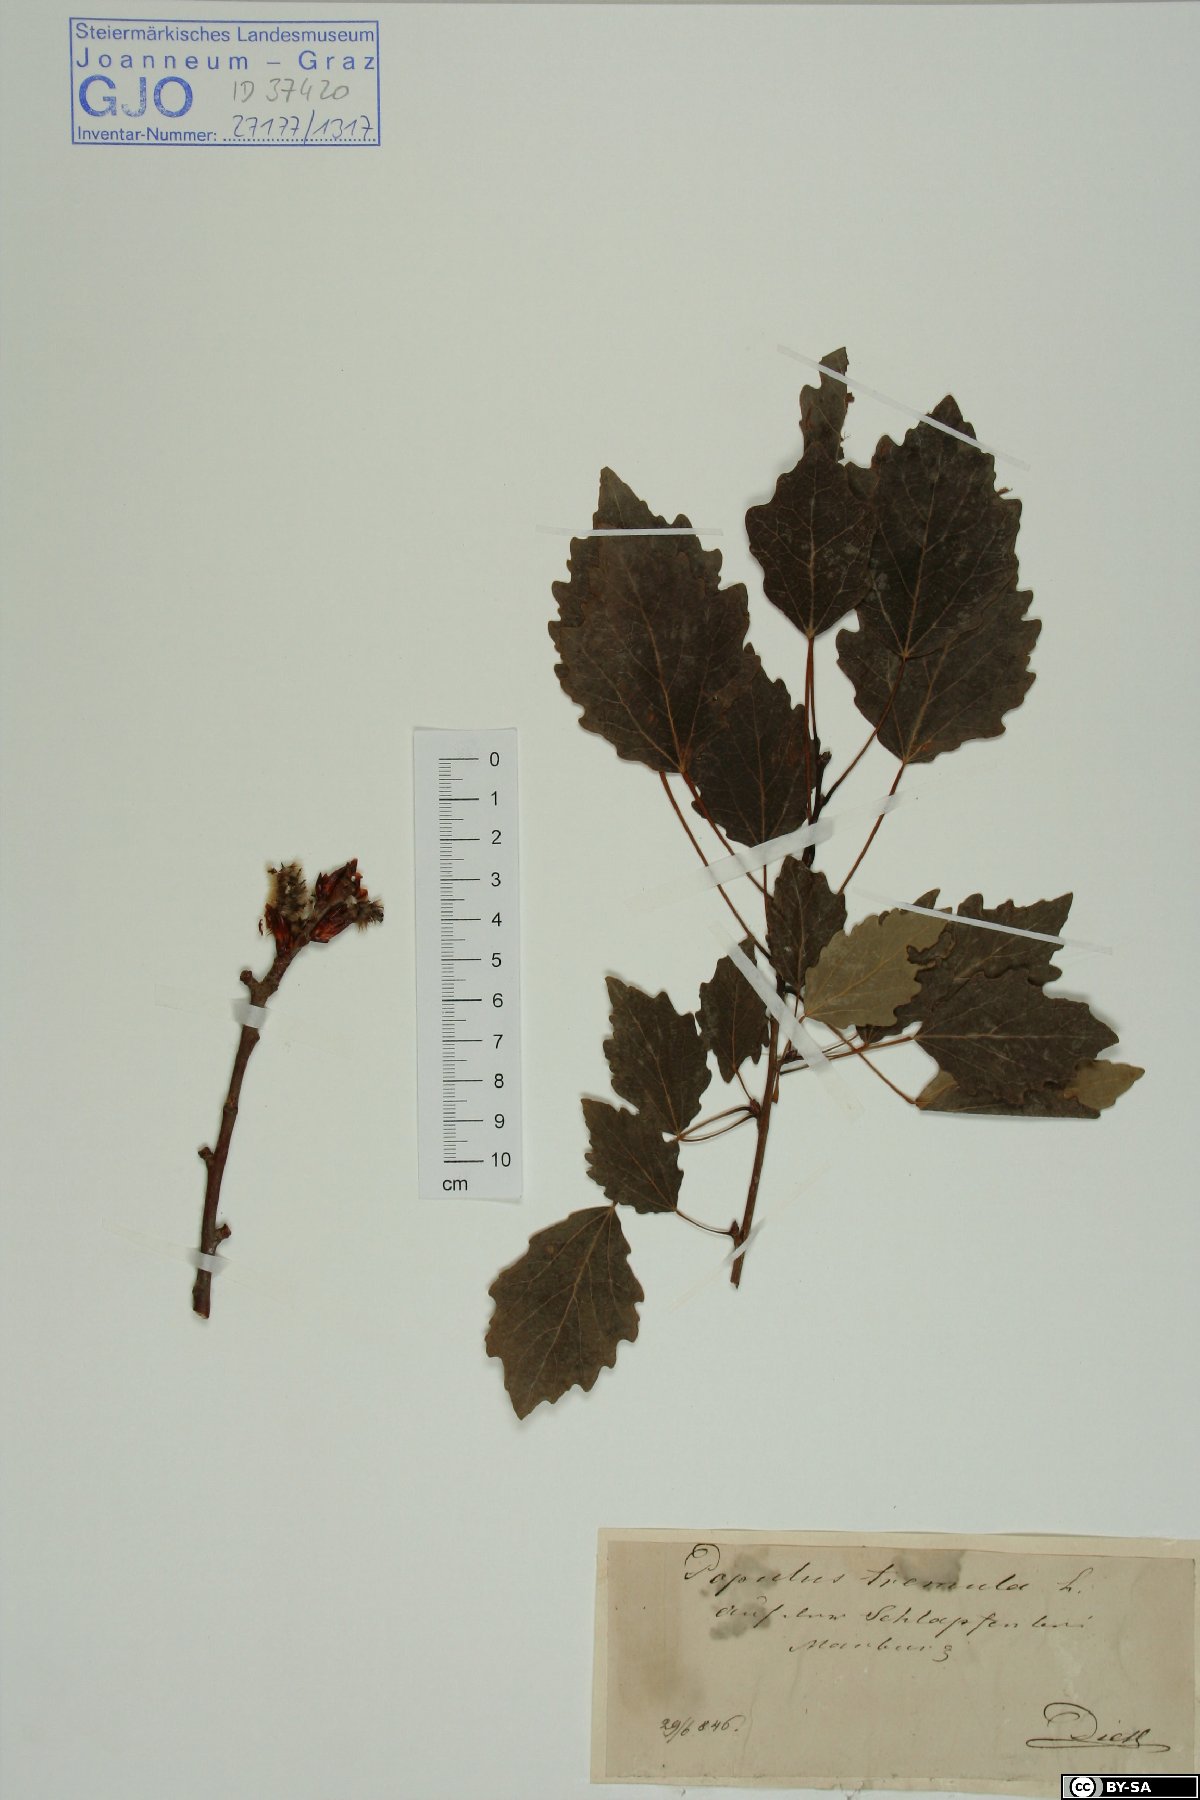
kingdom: Plantae
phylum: Tracheophyta
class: Magnoliopsida
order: Malpighiales
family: Salicaceae
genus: Populus
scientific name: Populus tremula
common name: European aspen
